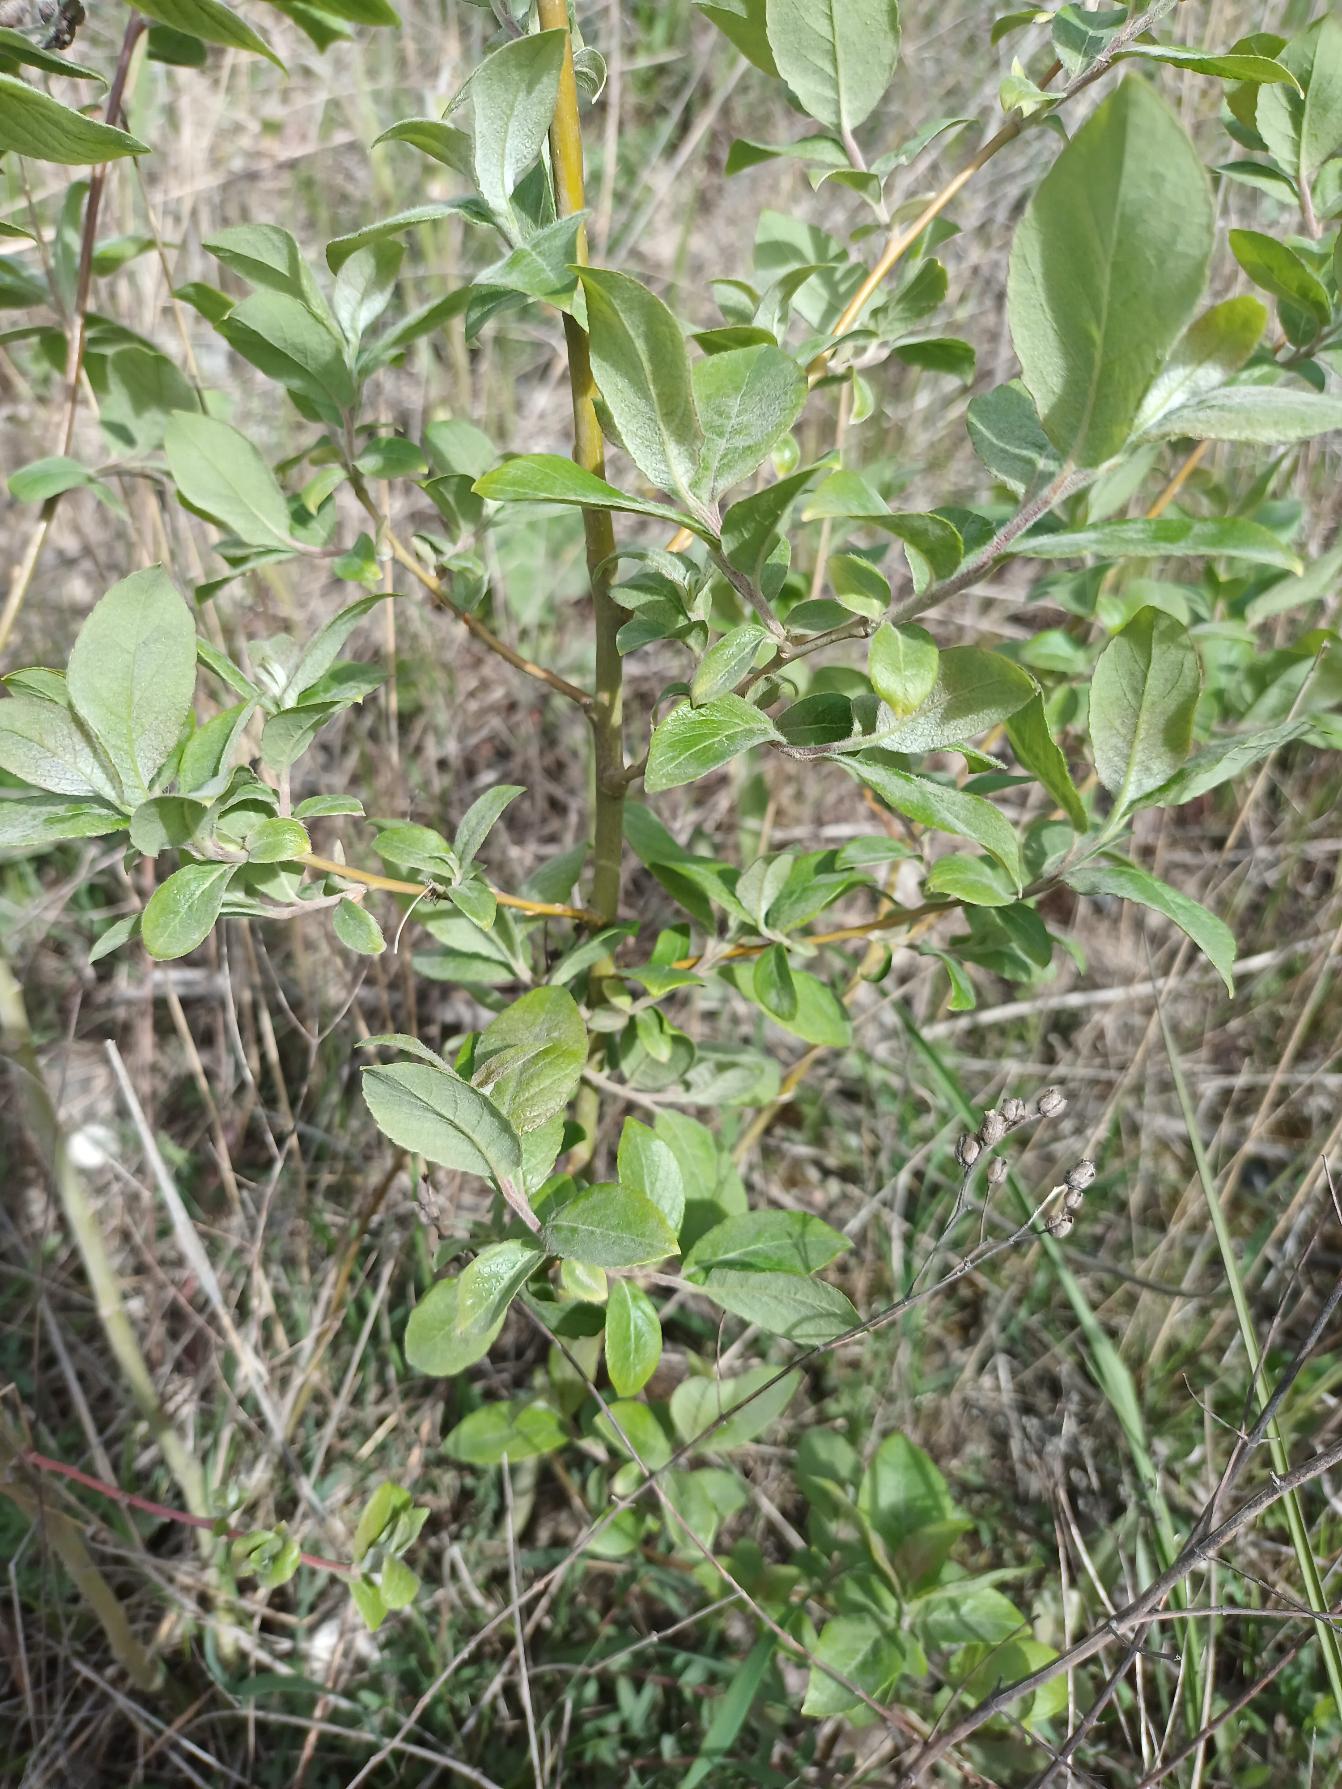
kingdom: Plantae
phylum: Tracheophyta
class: Magnoliopsida
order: Malpighiales
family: Salicaceae
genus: Salix
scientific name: Salix caprea
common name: Selje-pil
